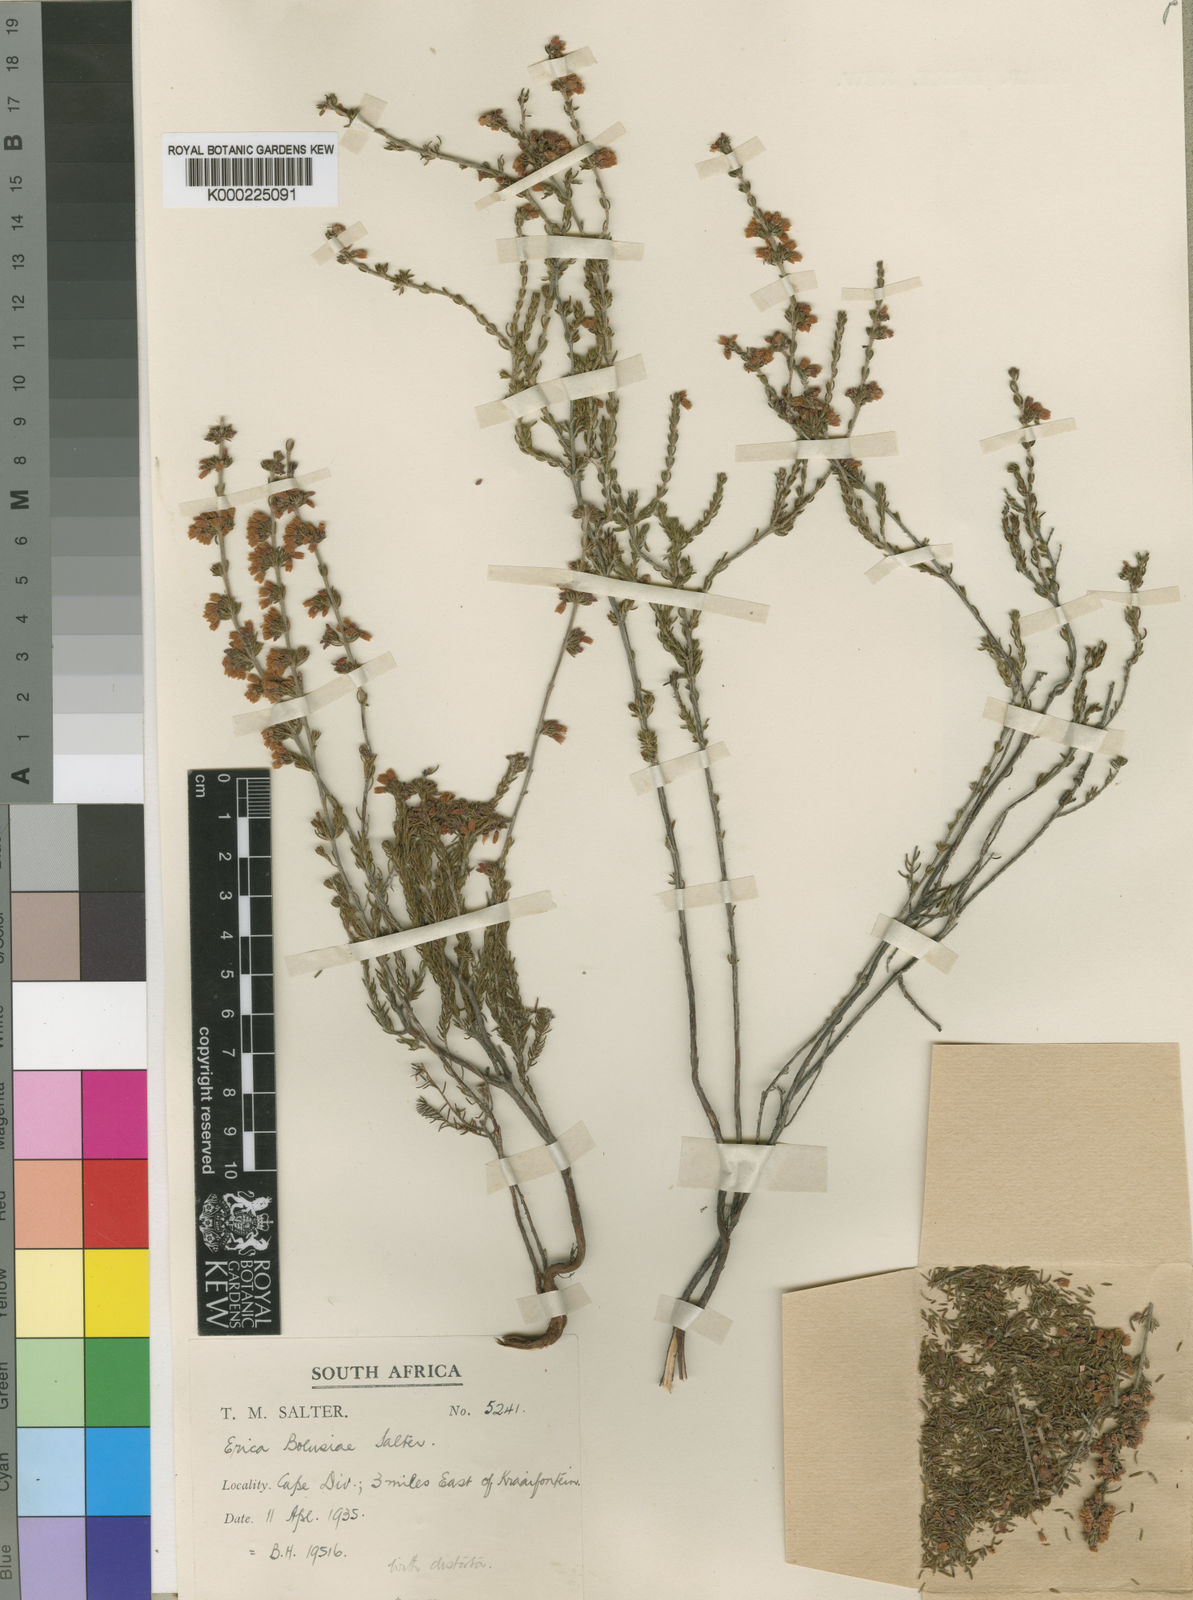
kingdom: Plantae
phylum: Tracheophyta
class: Magnoliopsida
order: Ericales
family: Ericaceae
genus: Erica
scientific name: Erica bolusiae
